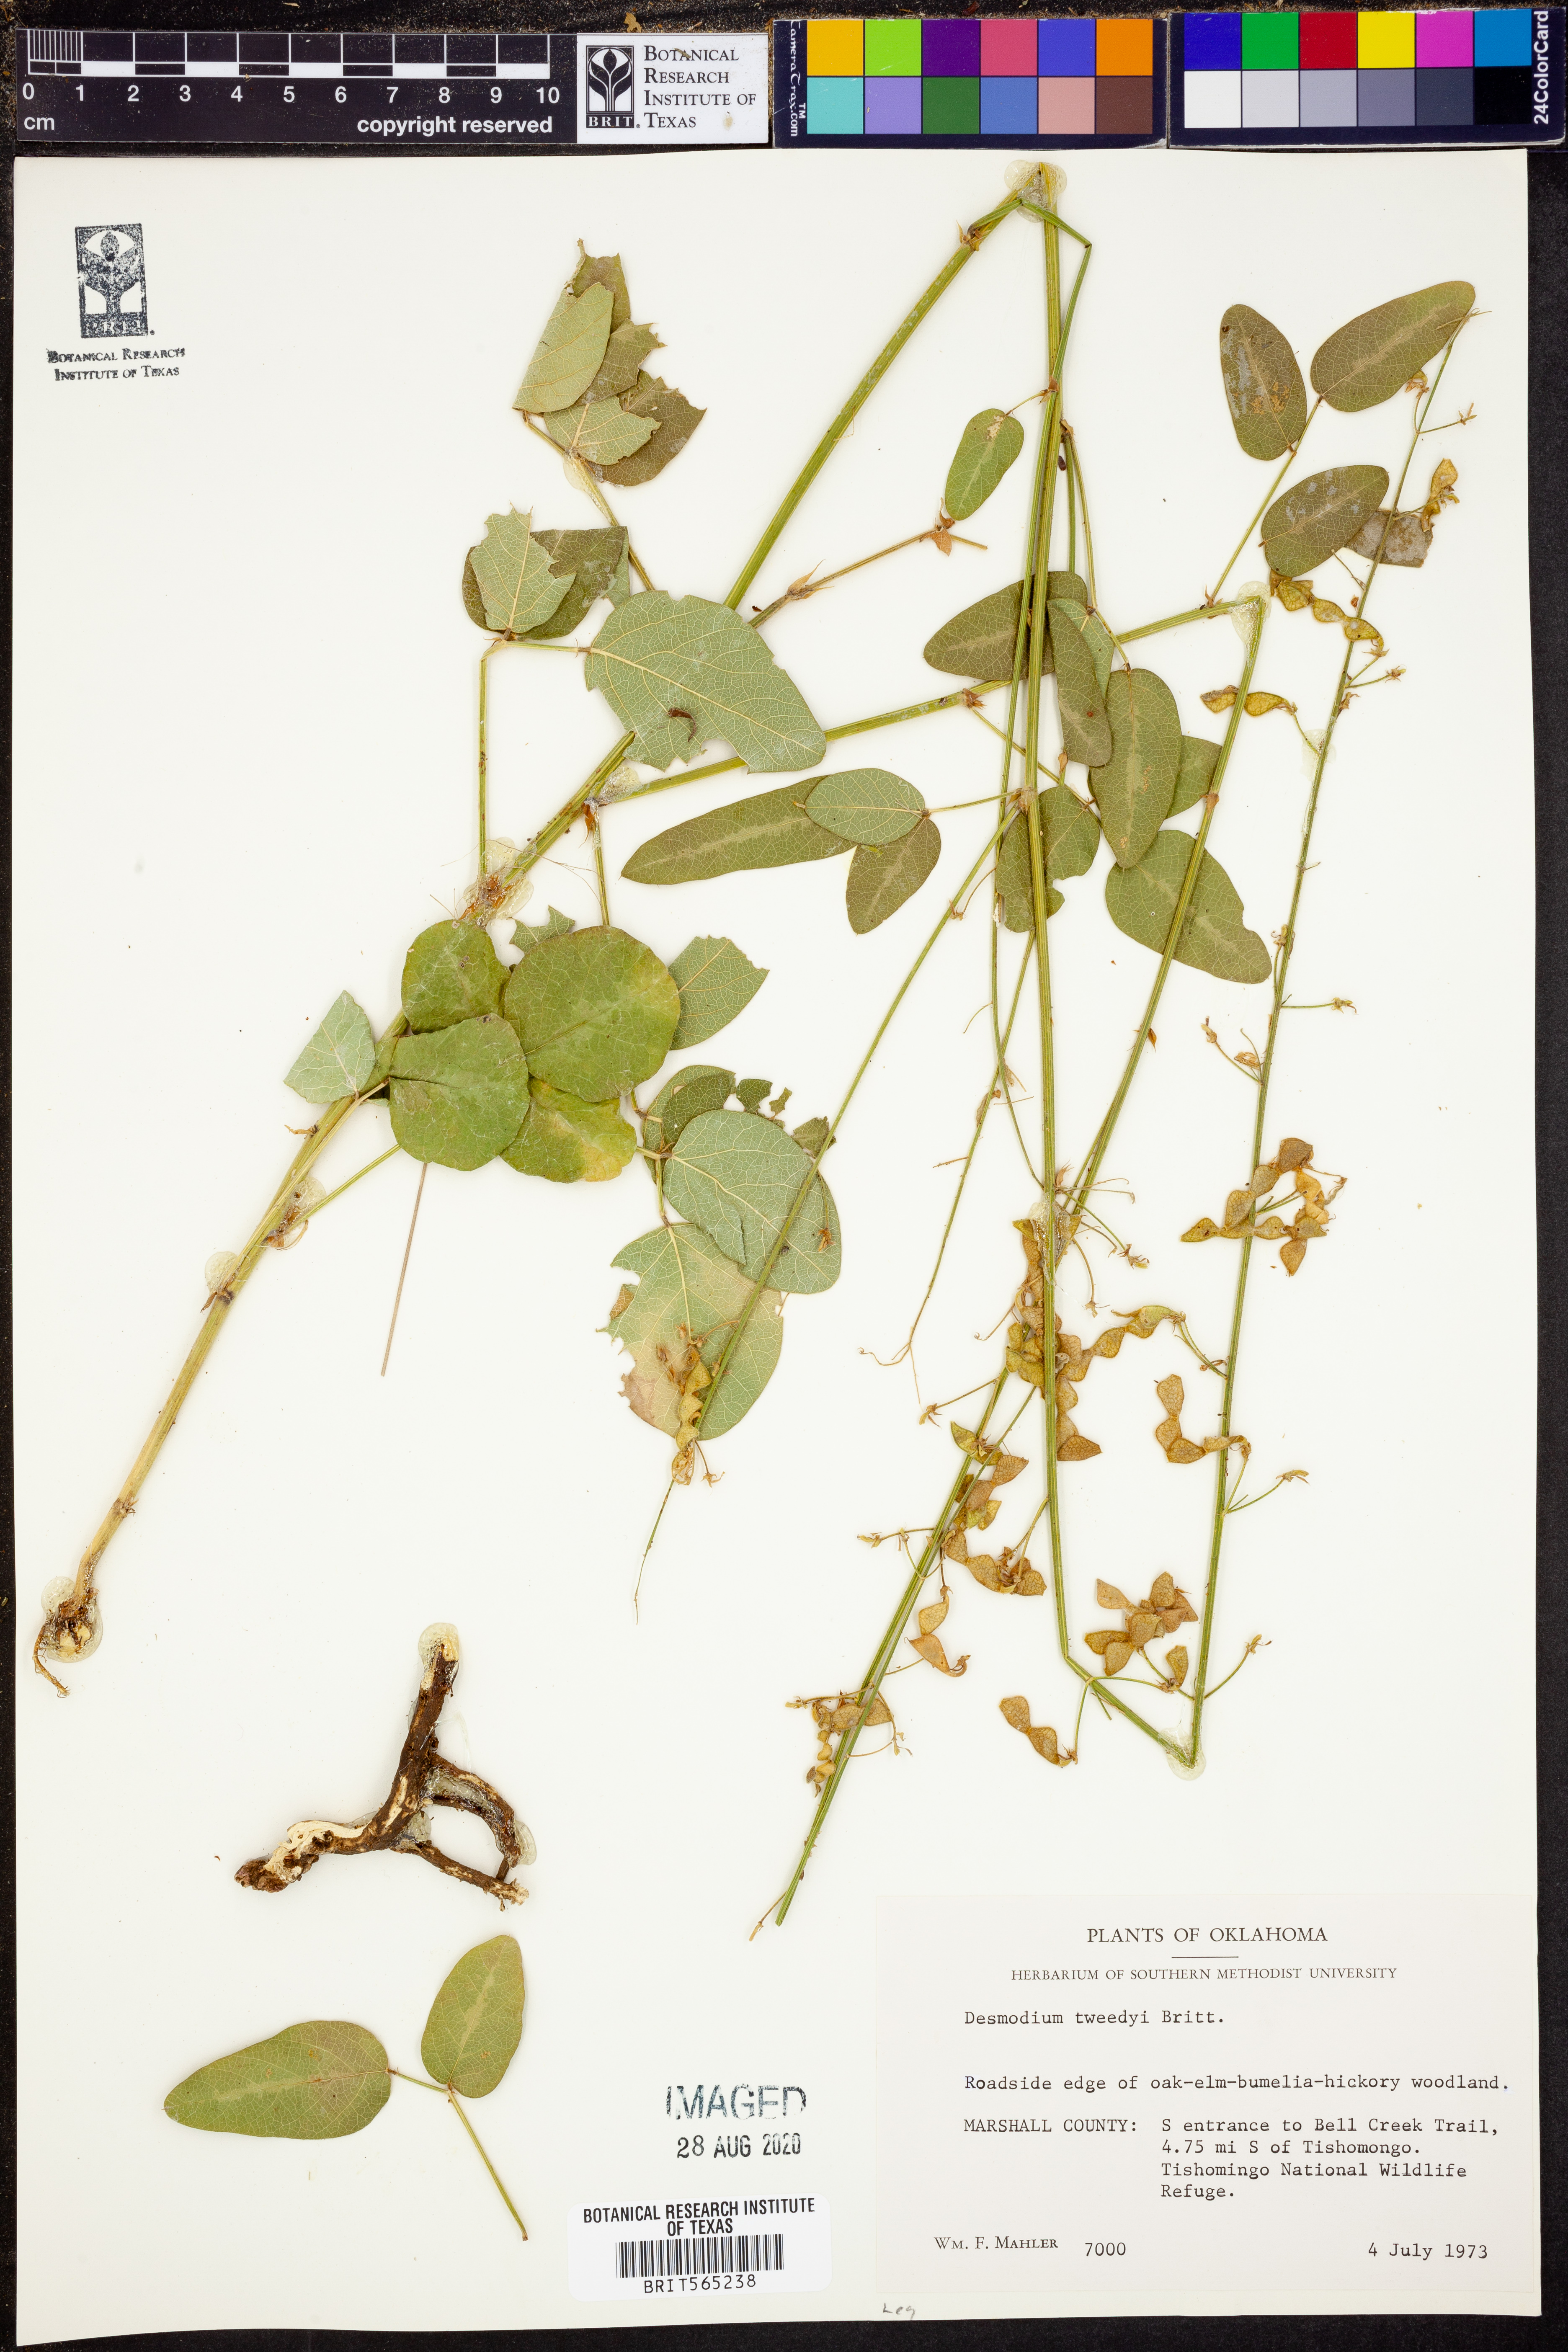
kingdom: Plantae
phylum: Tracheophyta
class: Magnoliopsida
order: Fabales
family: Fabaceae
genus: Desmodium
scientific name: Desmodium tweedyi
